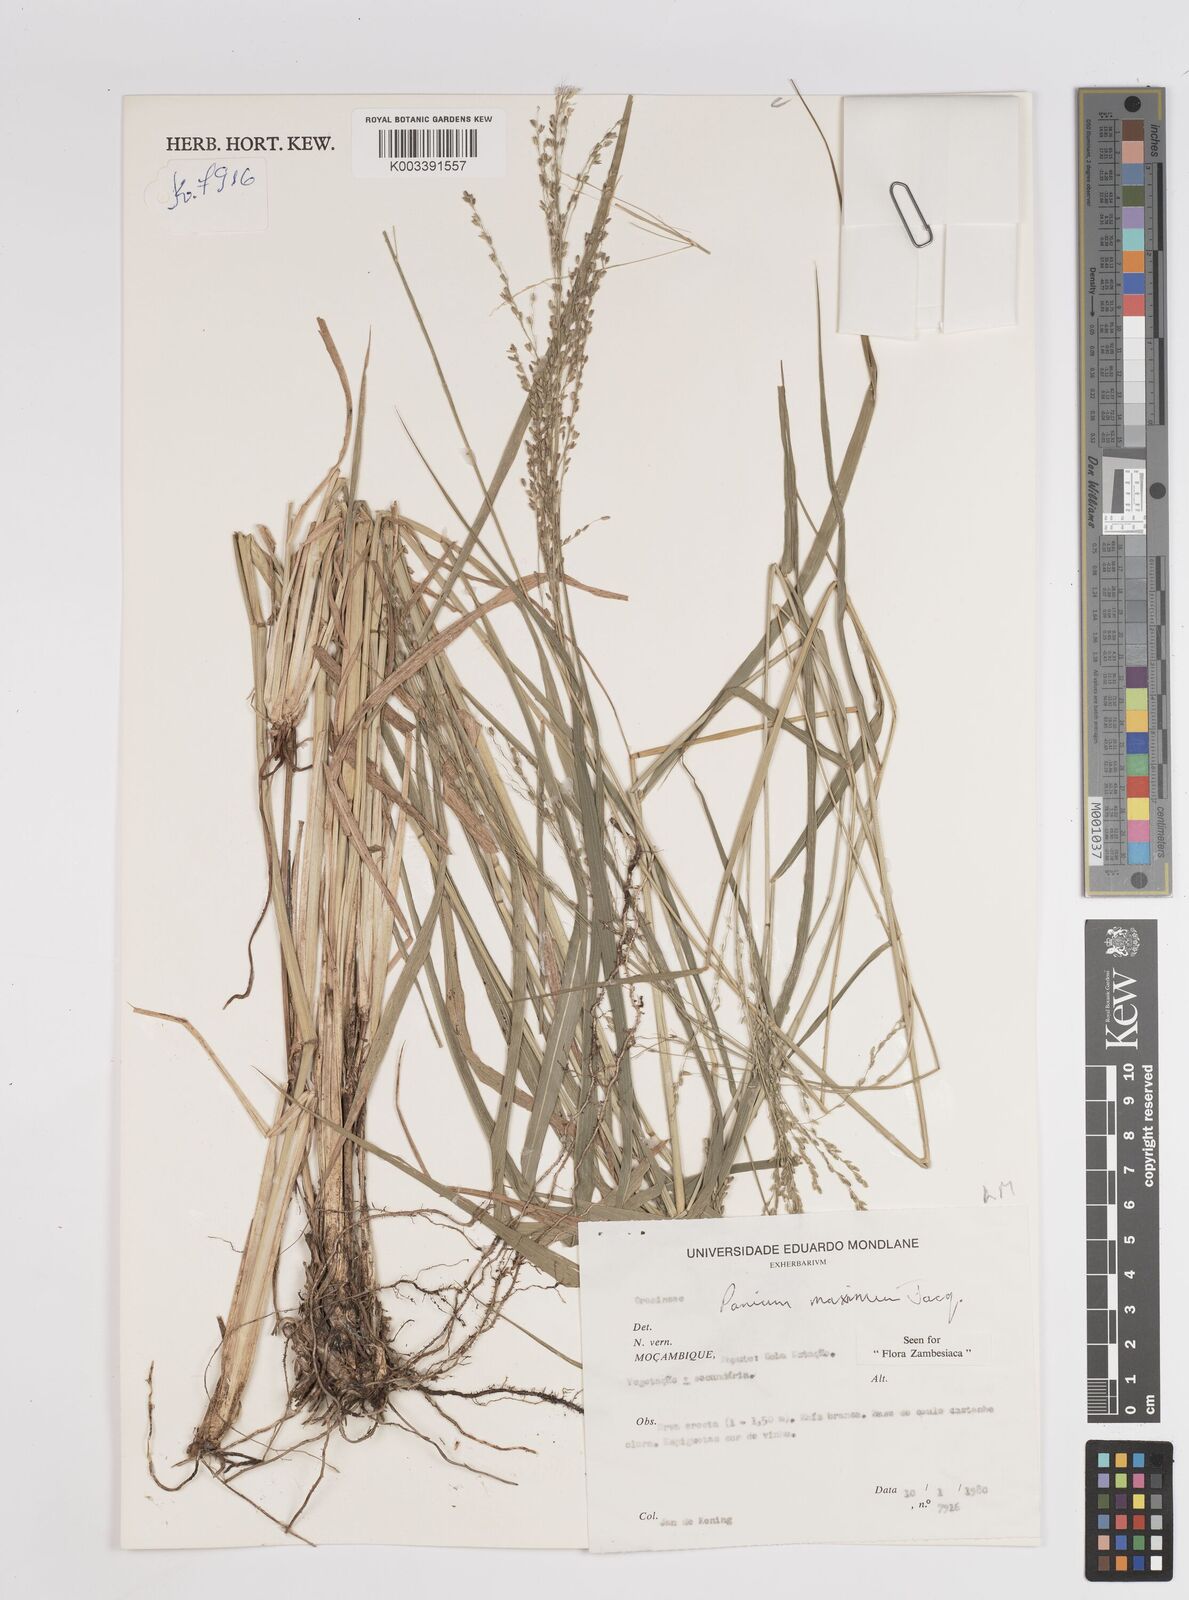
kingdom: Plantae
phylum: Tracheophyta
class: Liliopsida
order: Poales
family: Poaceae
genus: Megathyrsus
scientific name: Megathyrsus maximus
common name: Guineagrass
